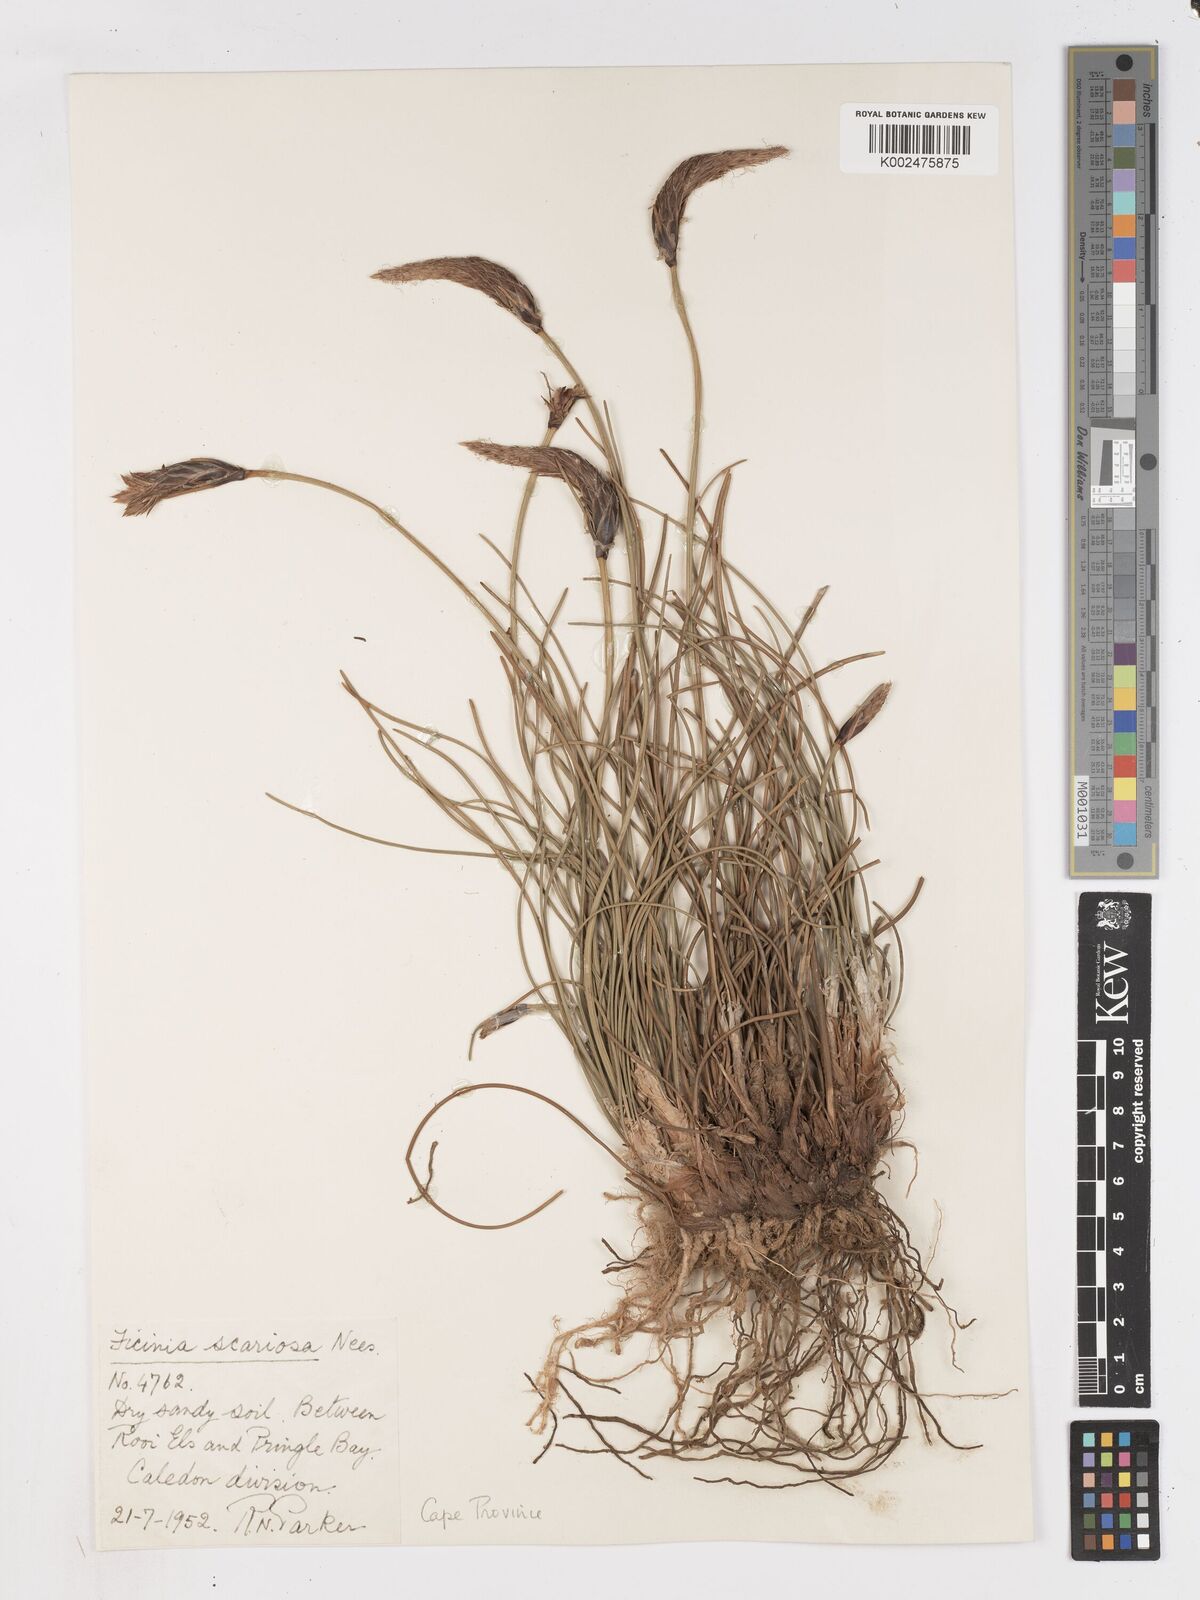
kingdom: Plantae
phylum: Tracheophyta
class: Liliopsida
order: Poales
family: Cyperaceae
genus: Ficinia
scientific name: Ficinia deusta
